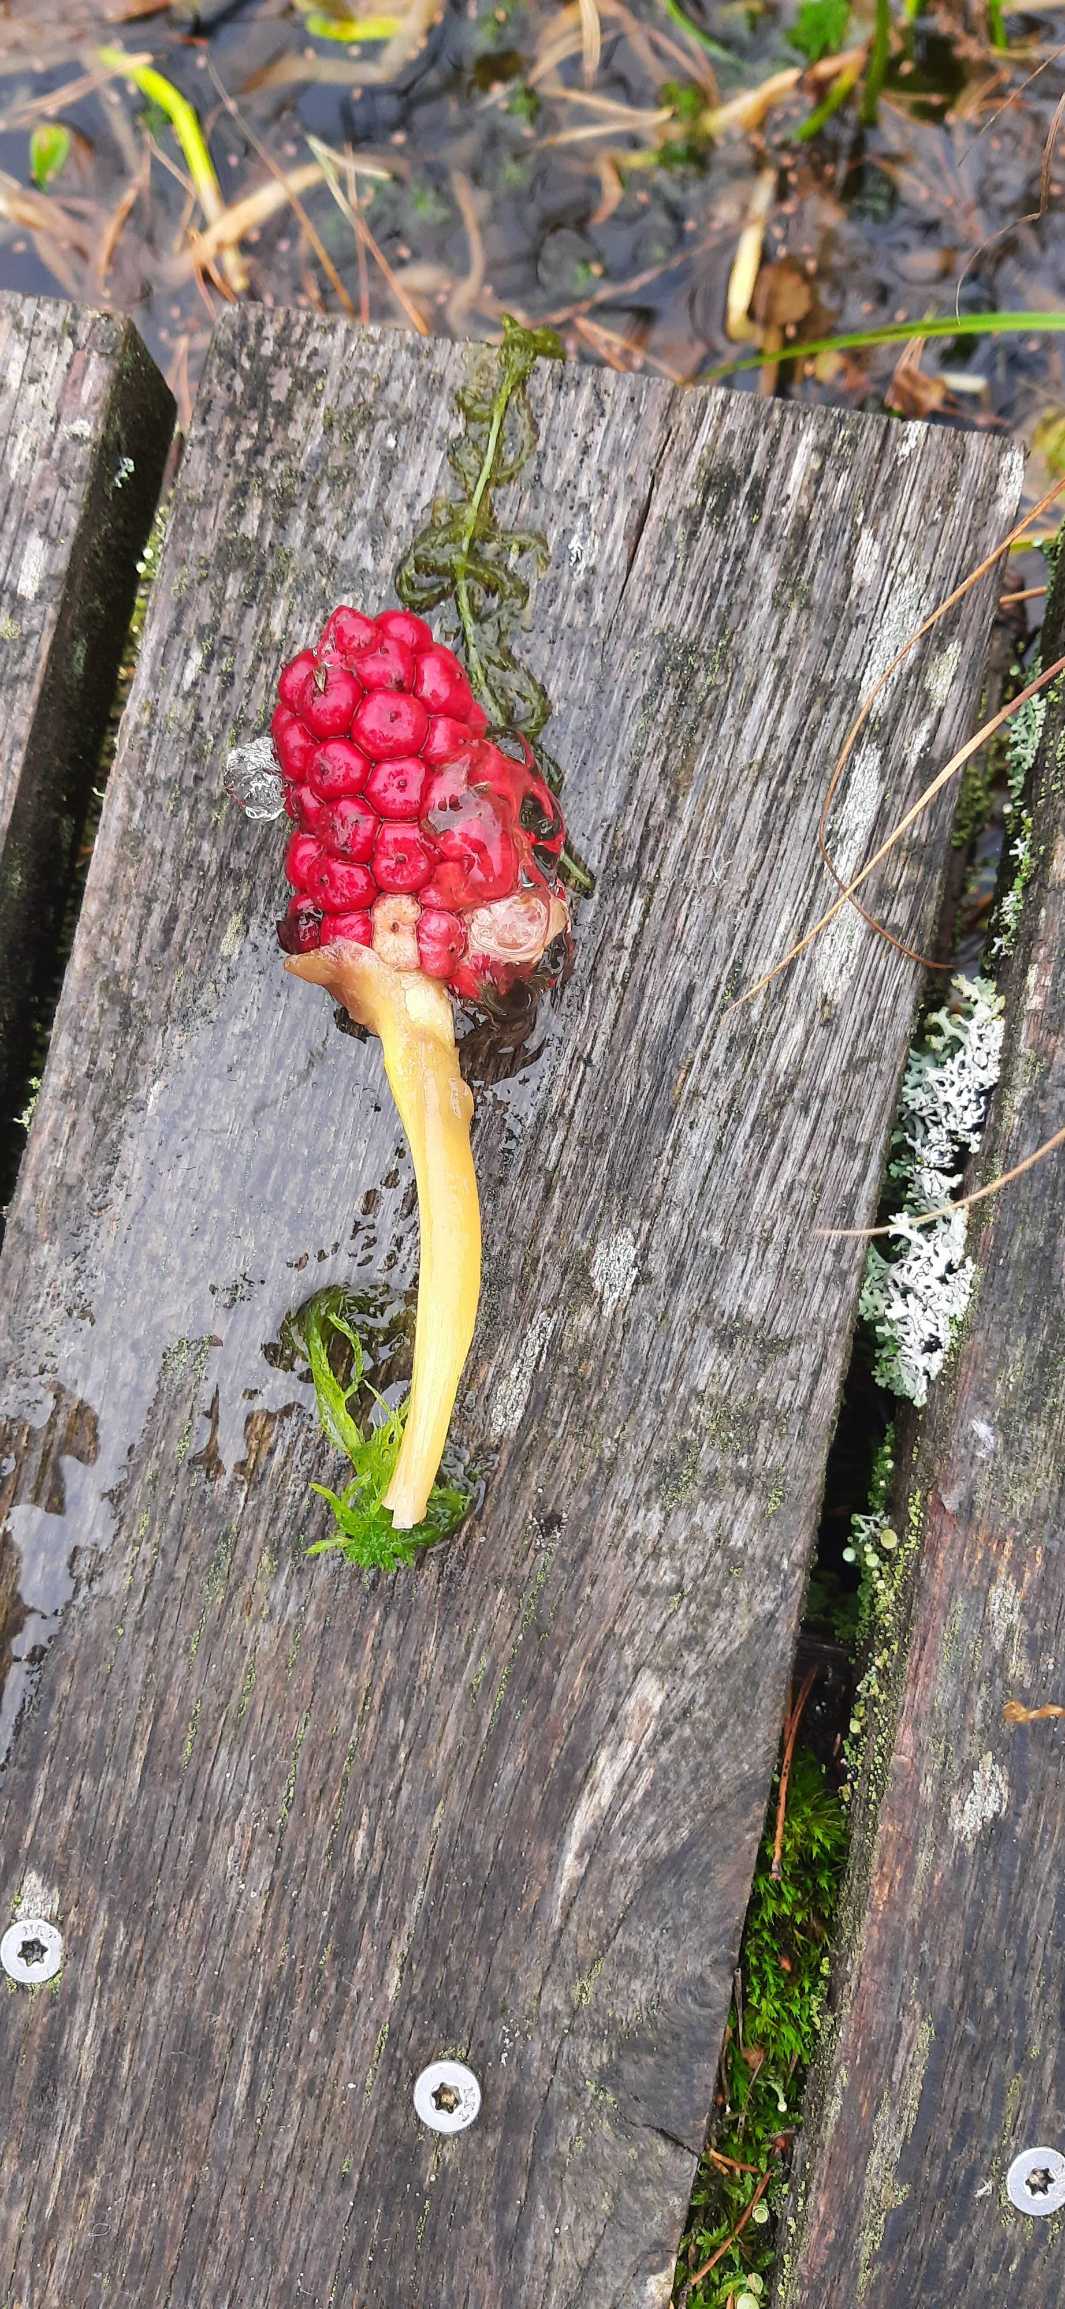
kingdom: Plantae
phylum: Tracheophyta
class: Liliopsida
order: Alismatales
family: Araceae
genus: Calla
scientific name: Calla palustris
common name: Kærmysse
